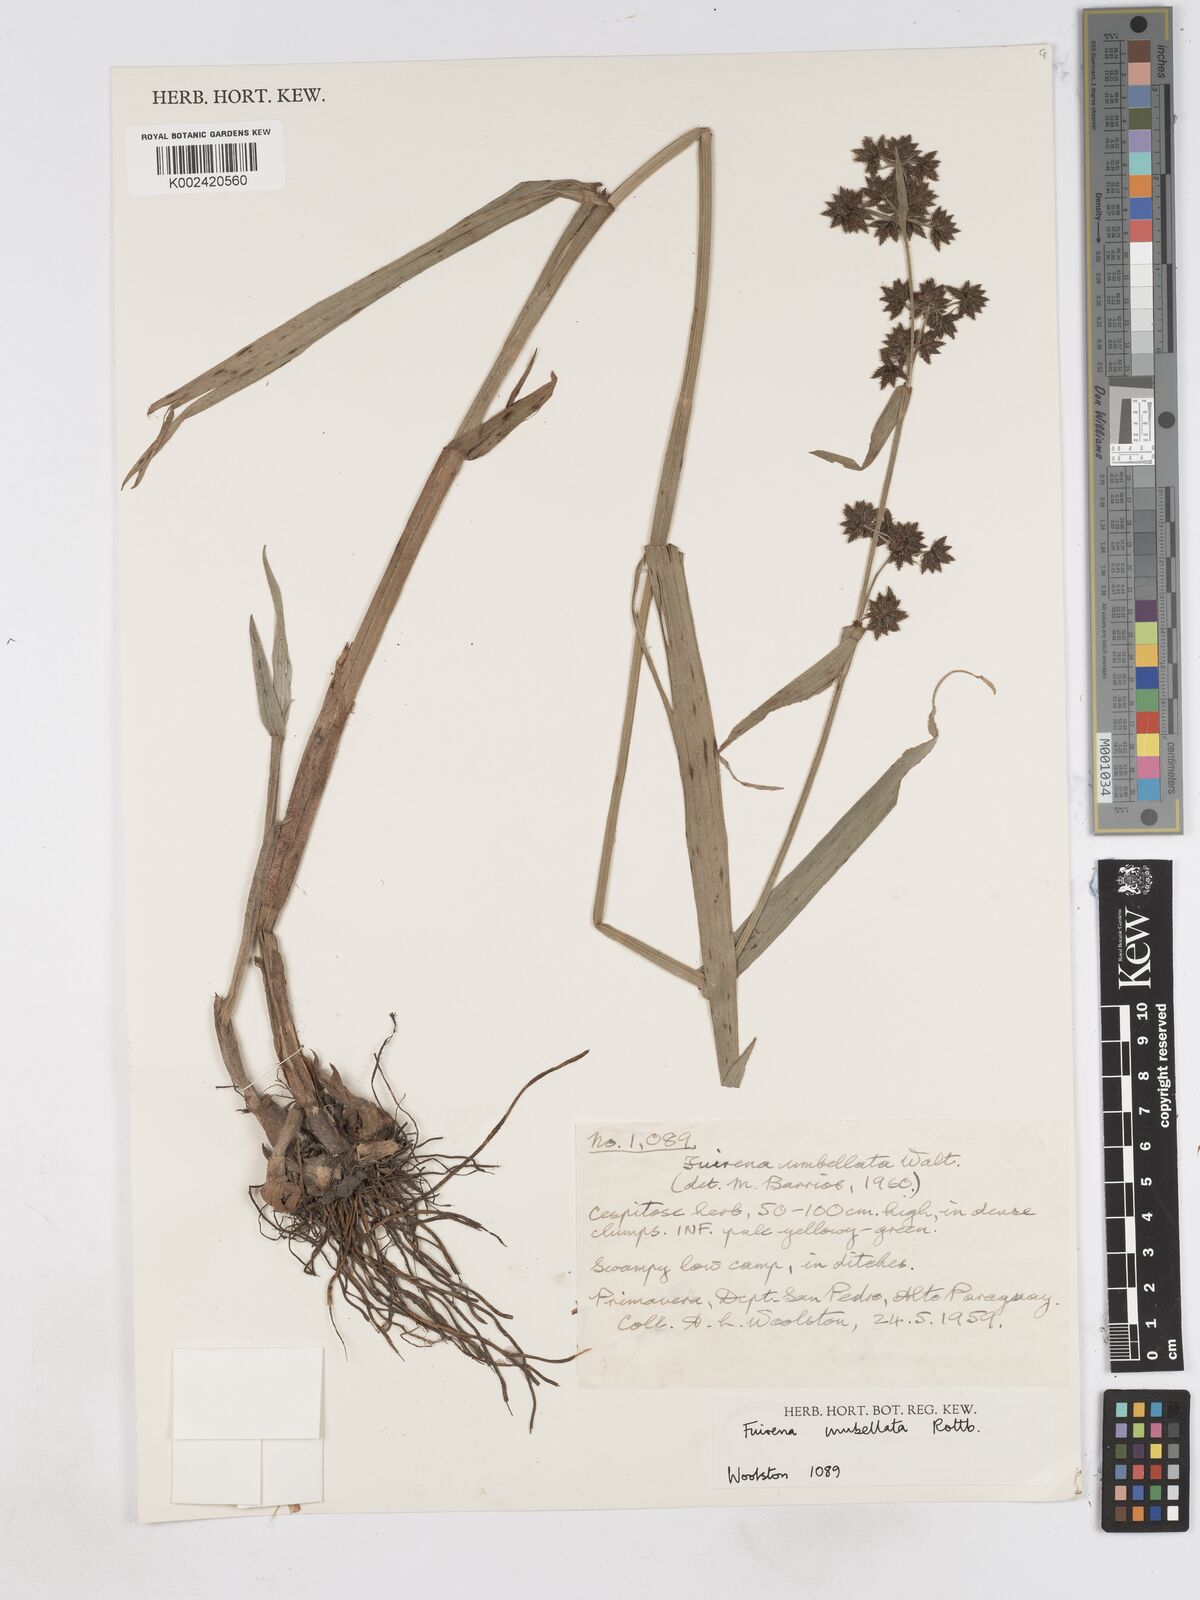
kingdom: Plantae
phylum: Tracheophyta
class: Liliopsida
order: Poales
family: Cyperaceae
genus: Fuirena
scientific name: Fuirena umbellata
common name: Yefen
